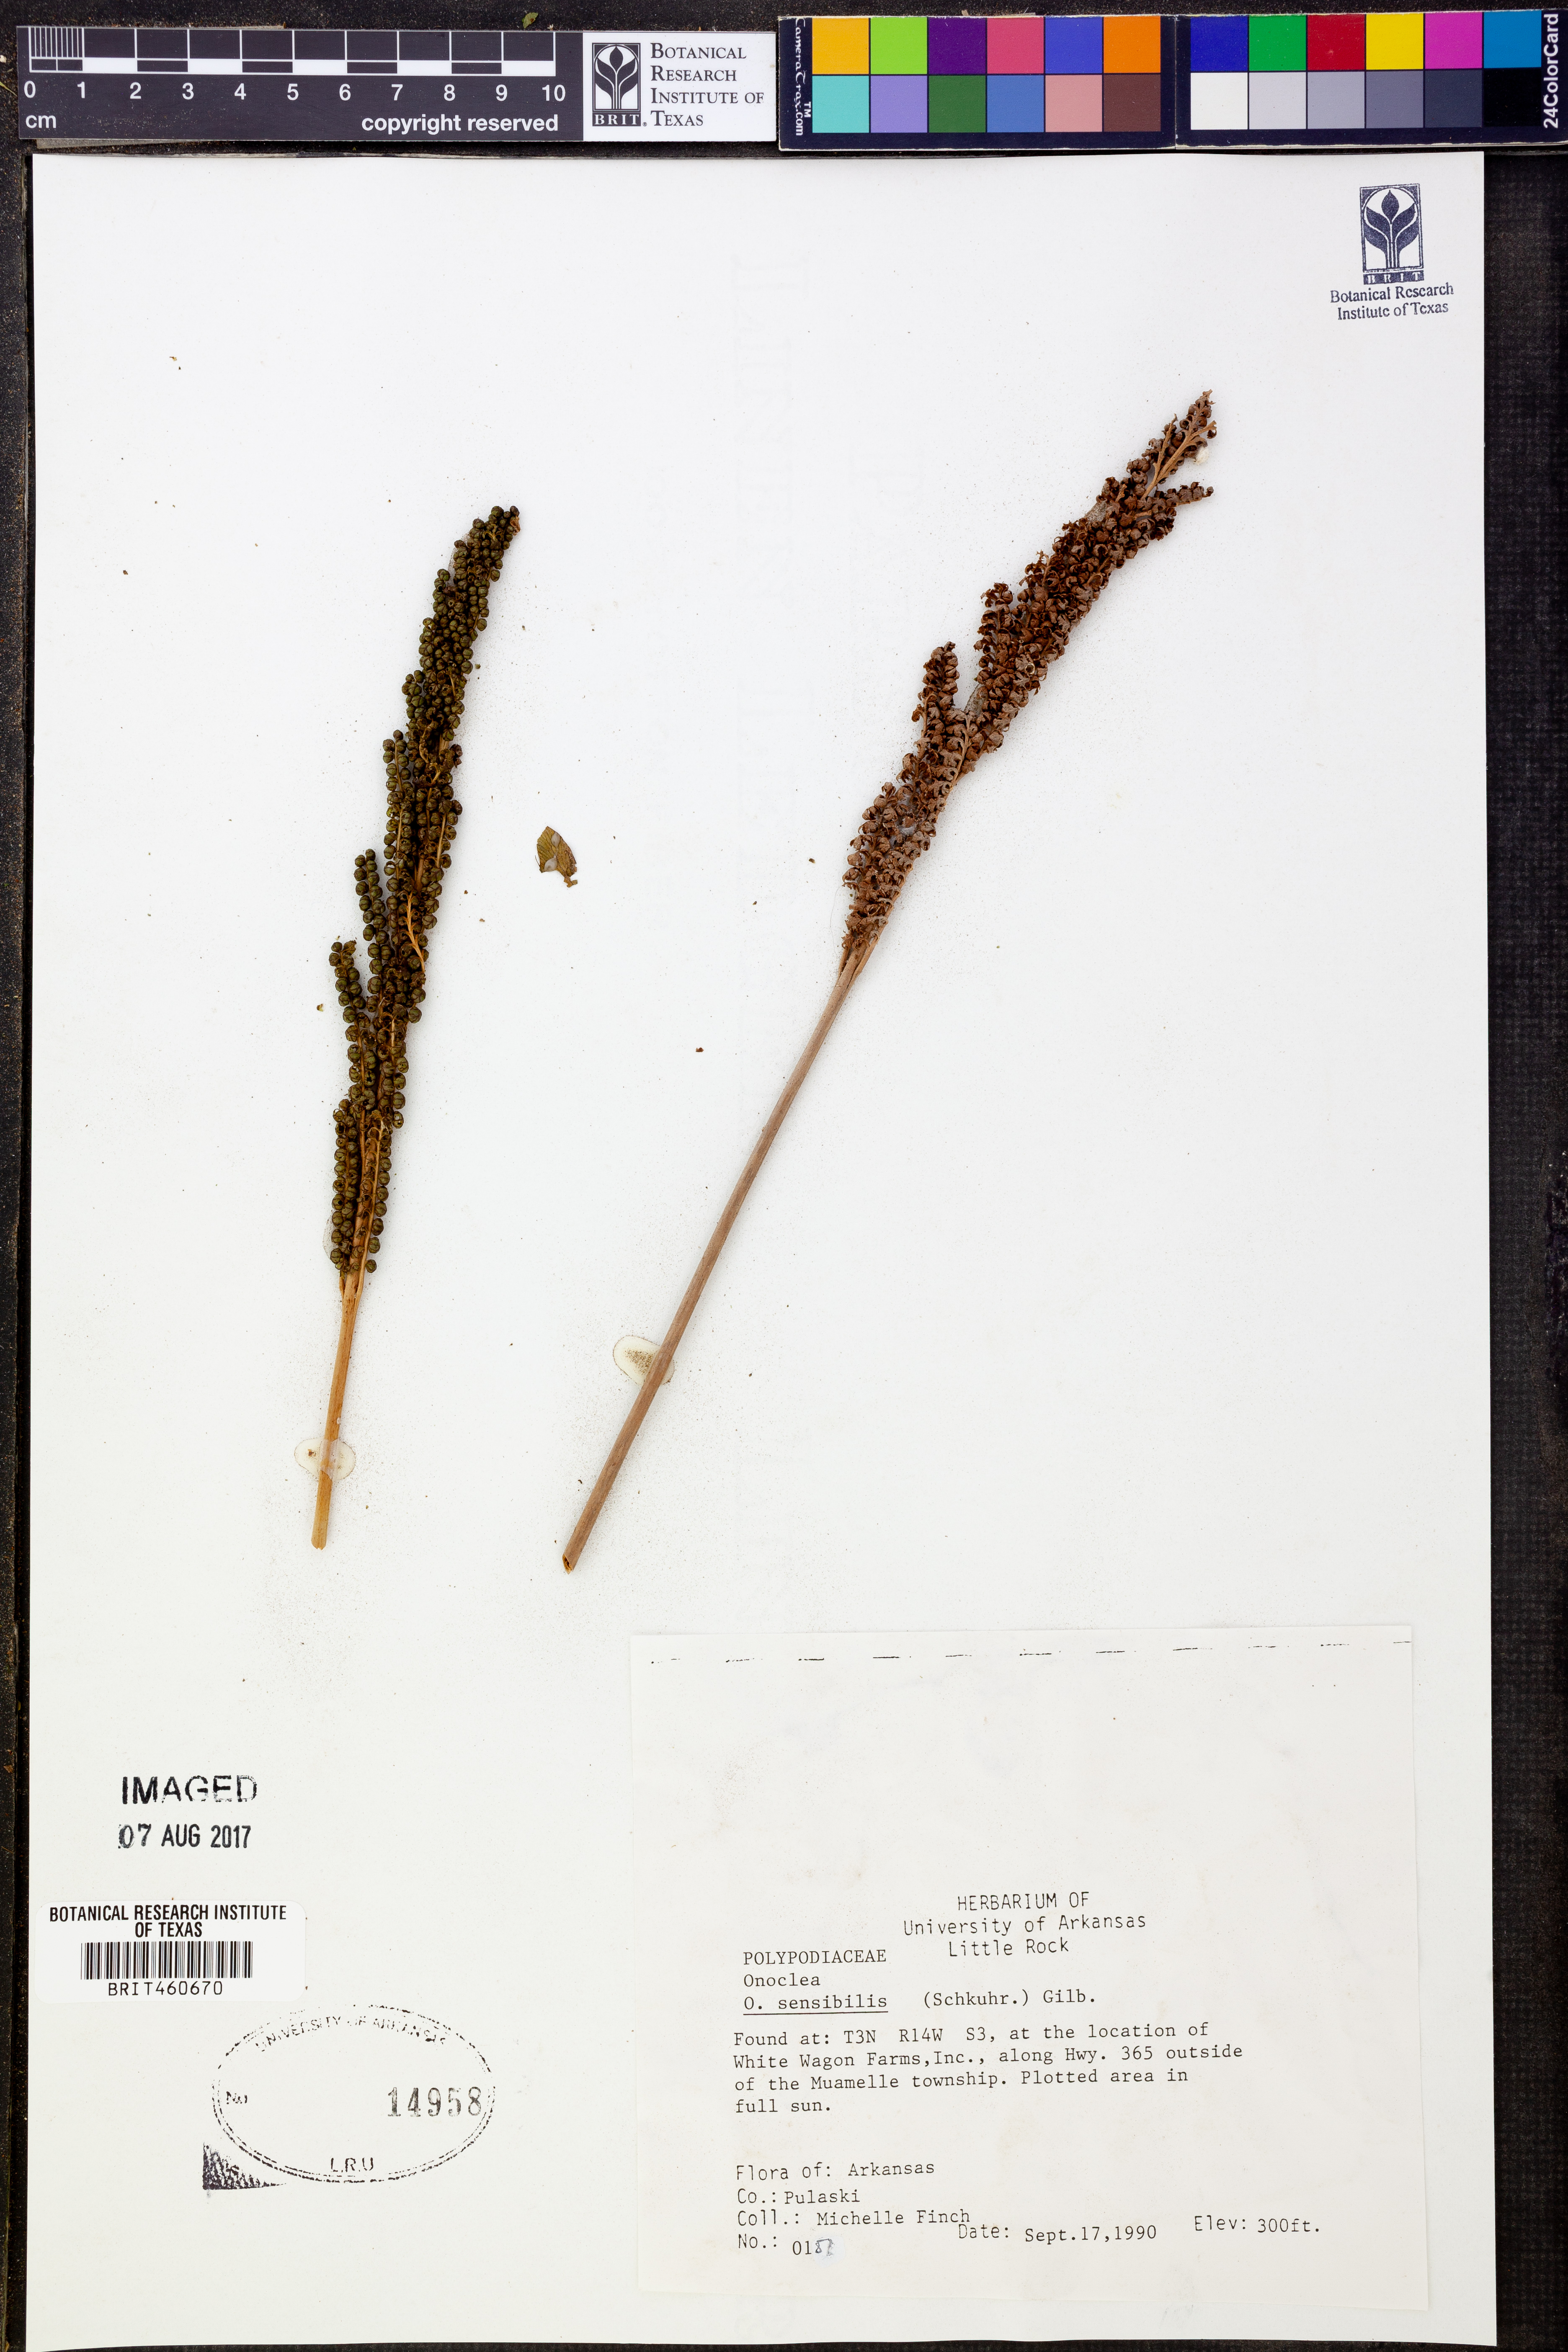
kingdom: Plantae
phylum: Tracheophyta
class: Polypodiopsida
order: Polypodiales
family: Onocleaceae
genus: Onoclea
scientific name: Onoclea sensibilis
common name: Sensitive fern
